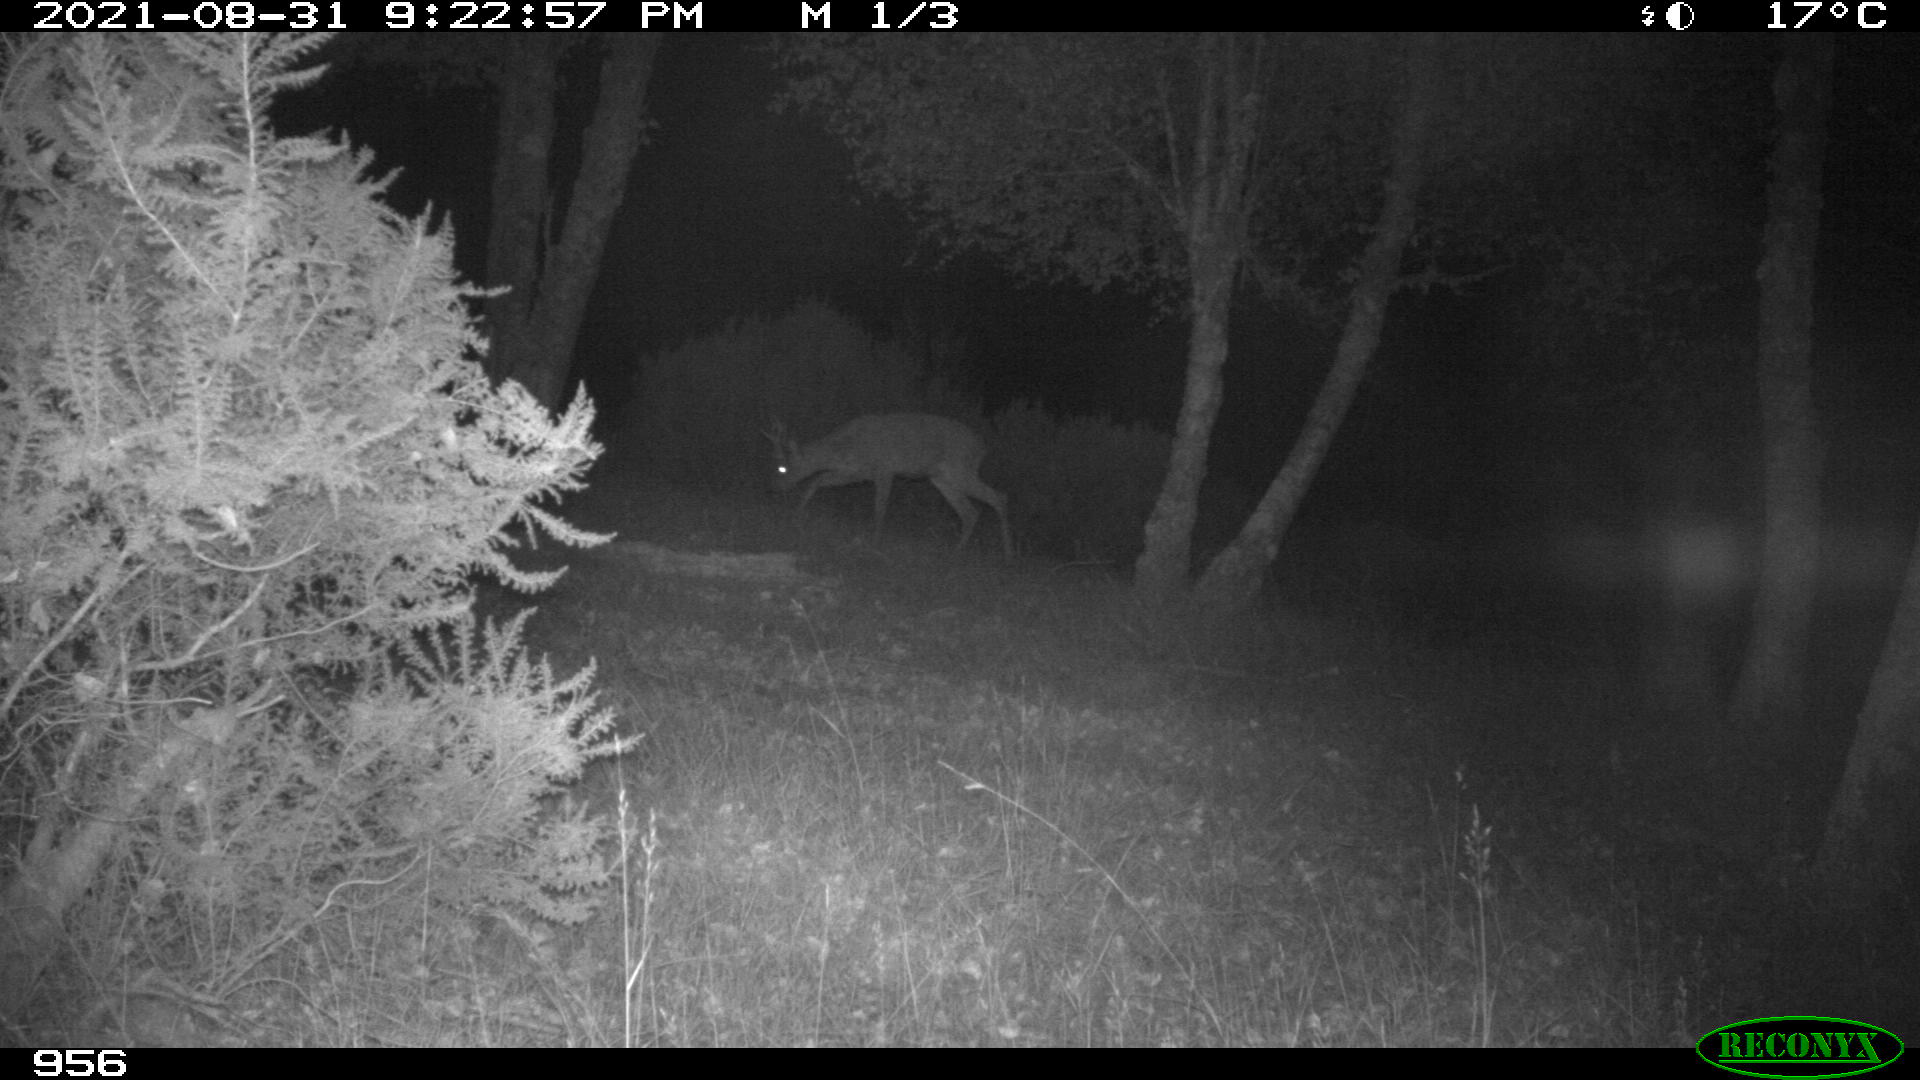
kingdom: Animalia
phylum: Chordata
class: Mammalia
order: Artiodactyla
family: Cervidae
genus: Capreolus
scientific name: Capreolus capreolus
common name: Western roe deer
